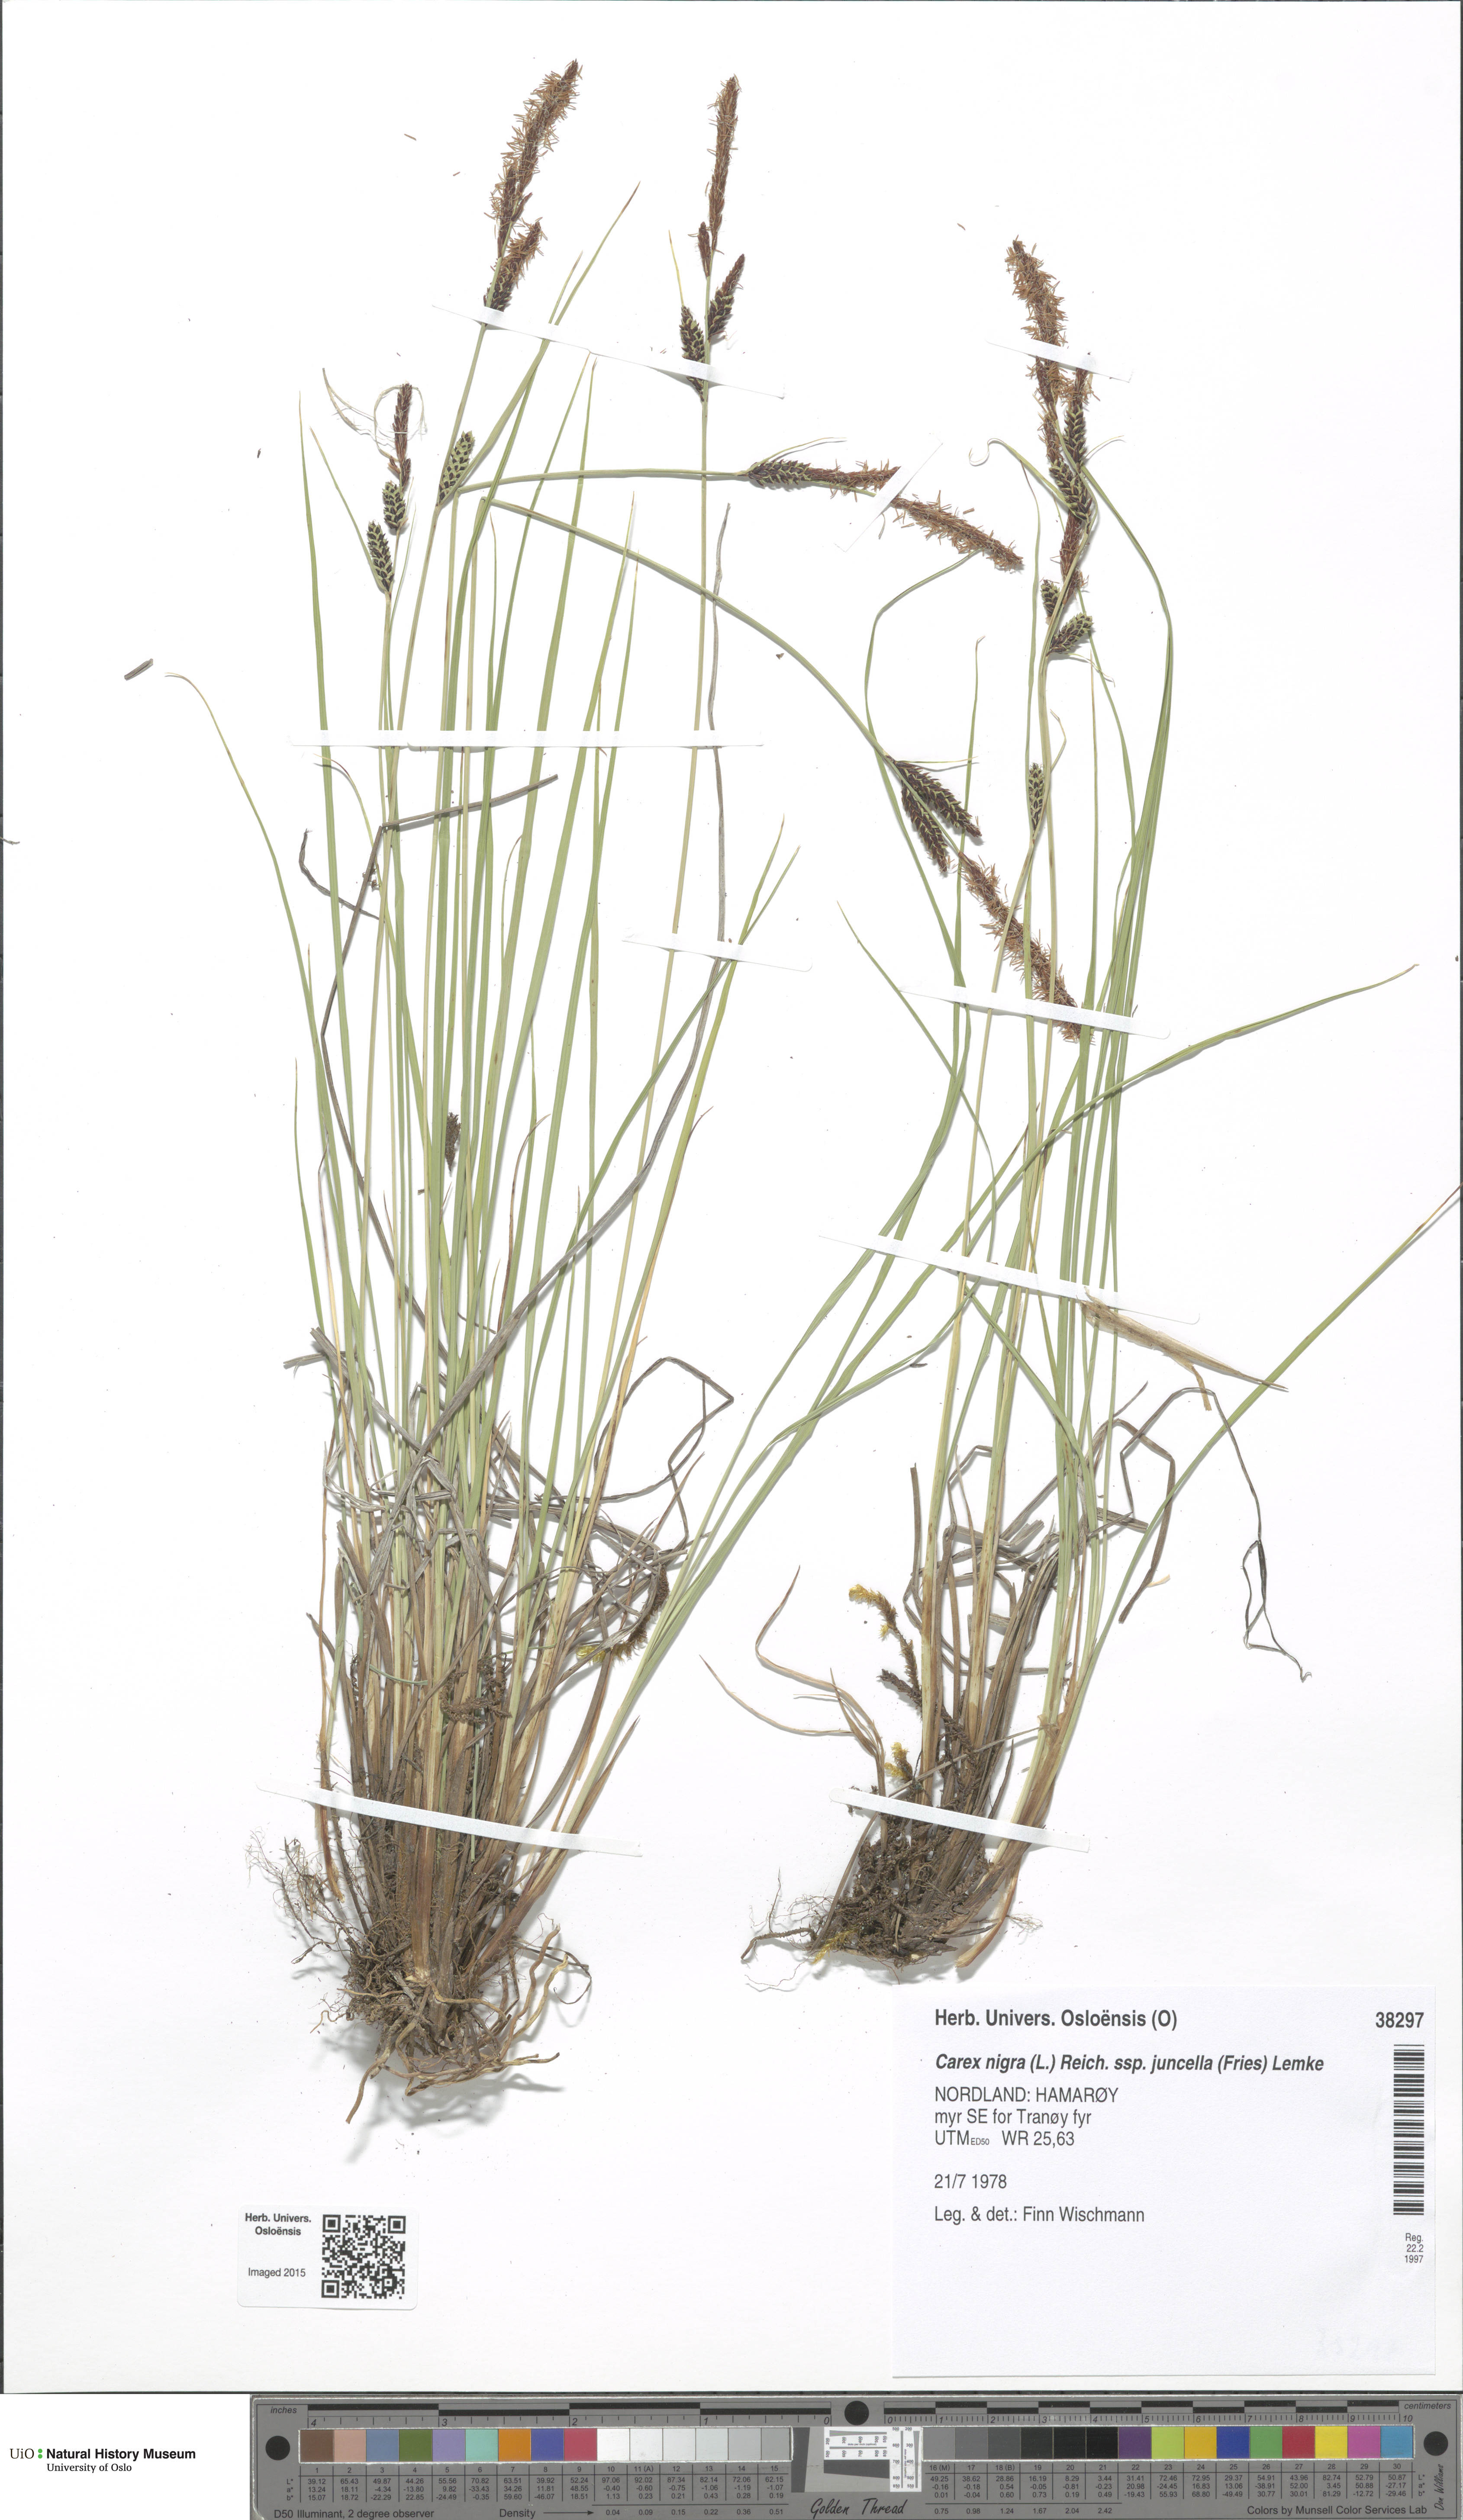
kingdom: Plantae
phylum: Tracheophyta
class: Liliopsida
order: Poales
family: Cyperaceae
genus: Carex
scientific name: Carex nigra
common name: Common sedge
